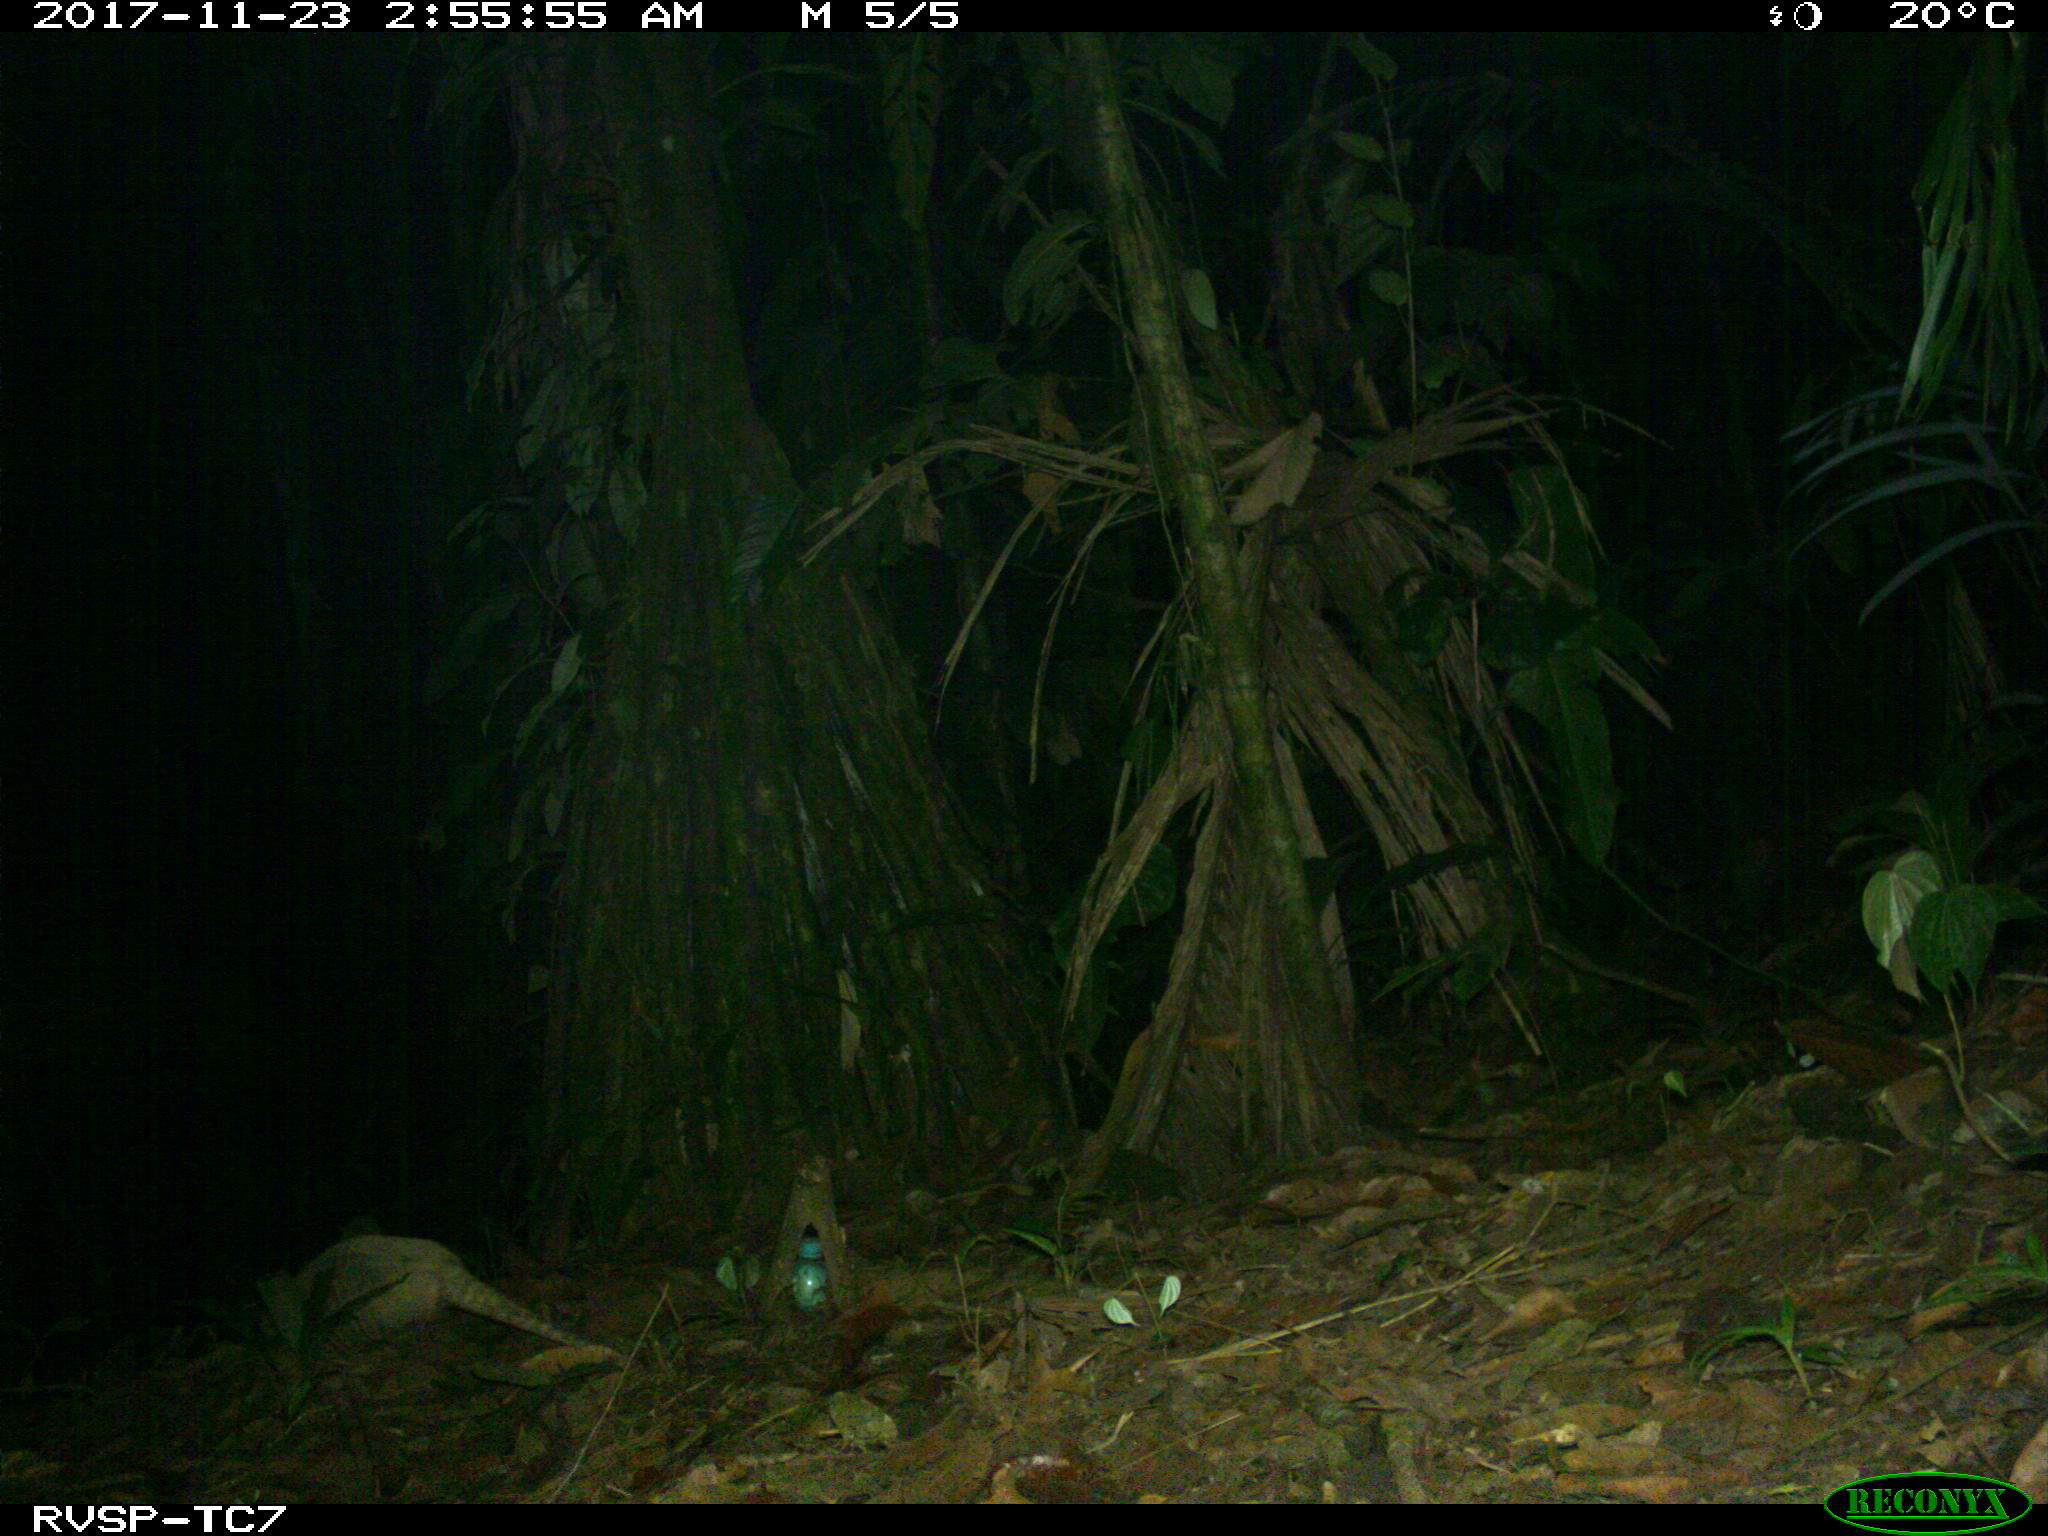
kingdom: Animalia
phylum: Chordata
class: Mammalia
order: Cingulata
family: Dasypodidae
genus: Dasypus
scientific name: Dasypus novemcinctus
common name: Nine-banded armadillo
